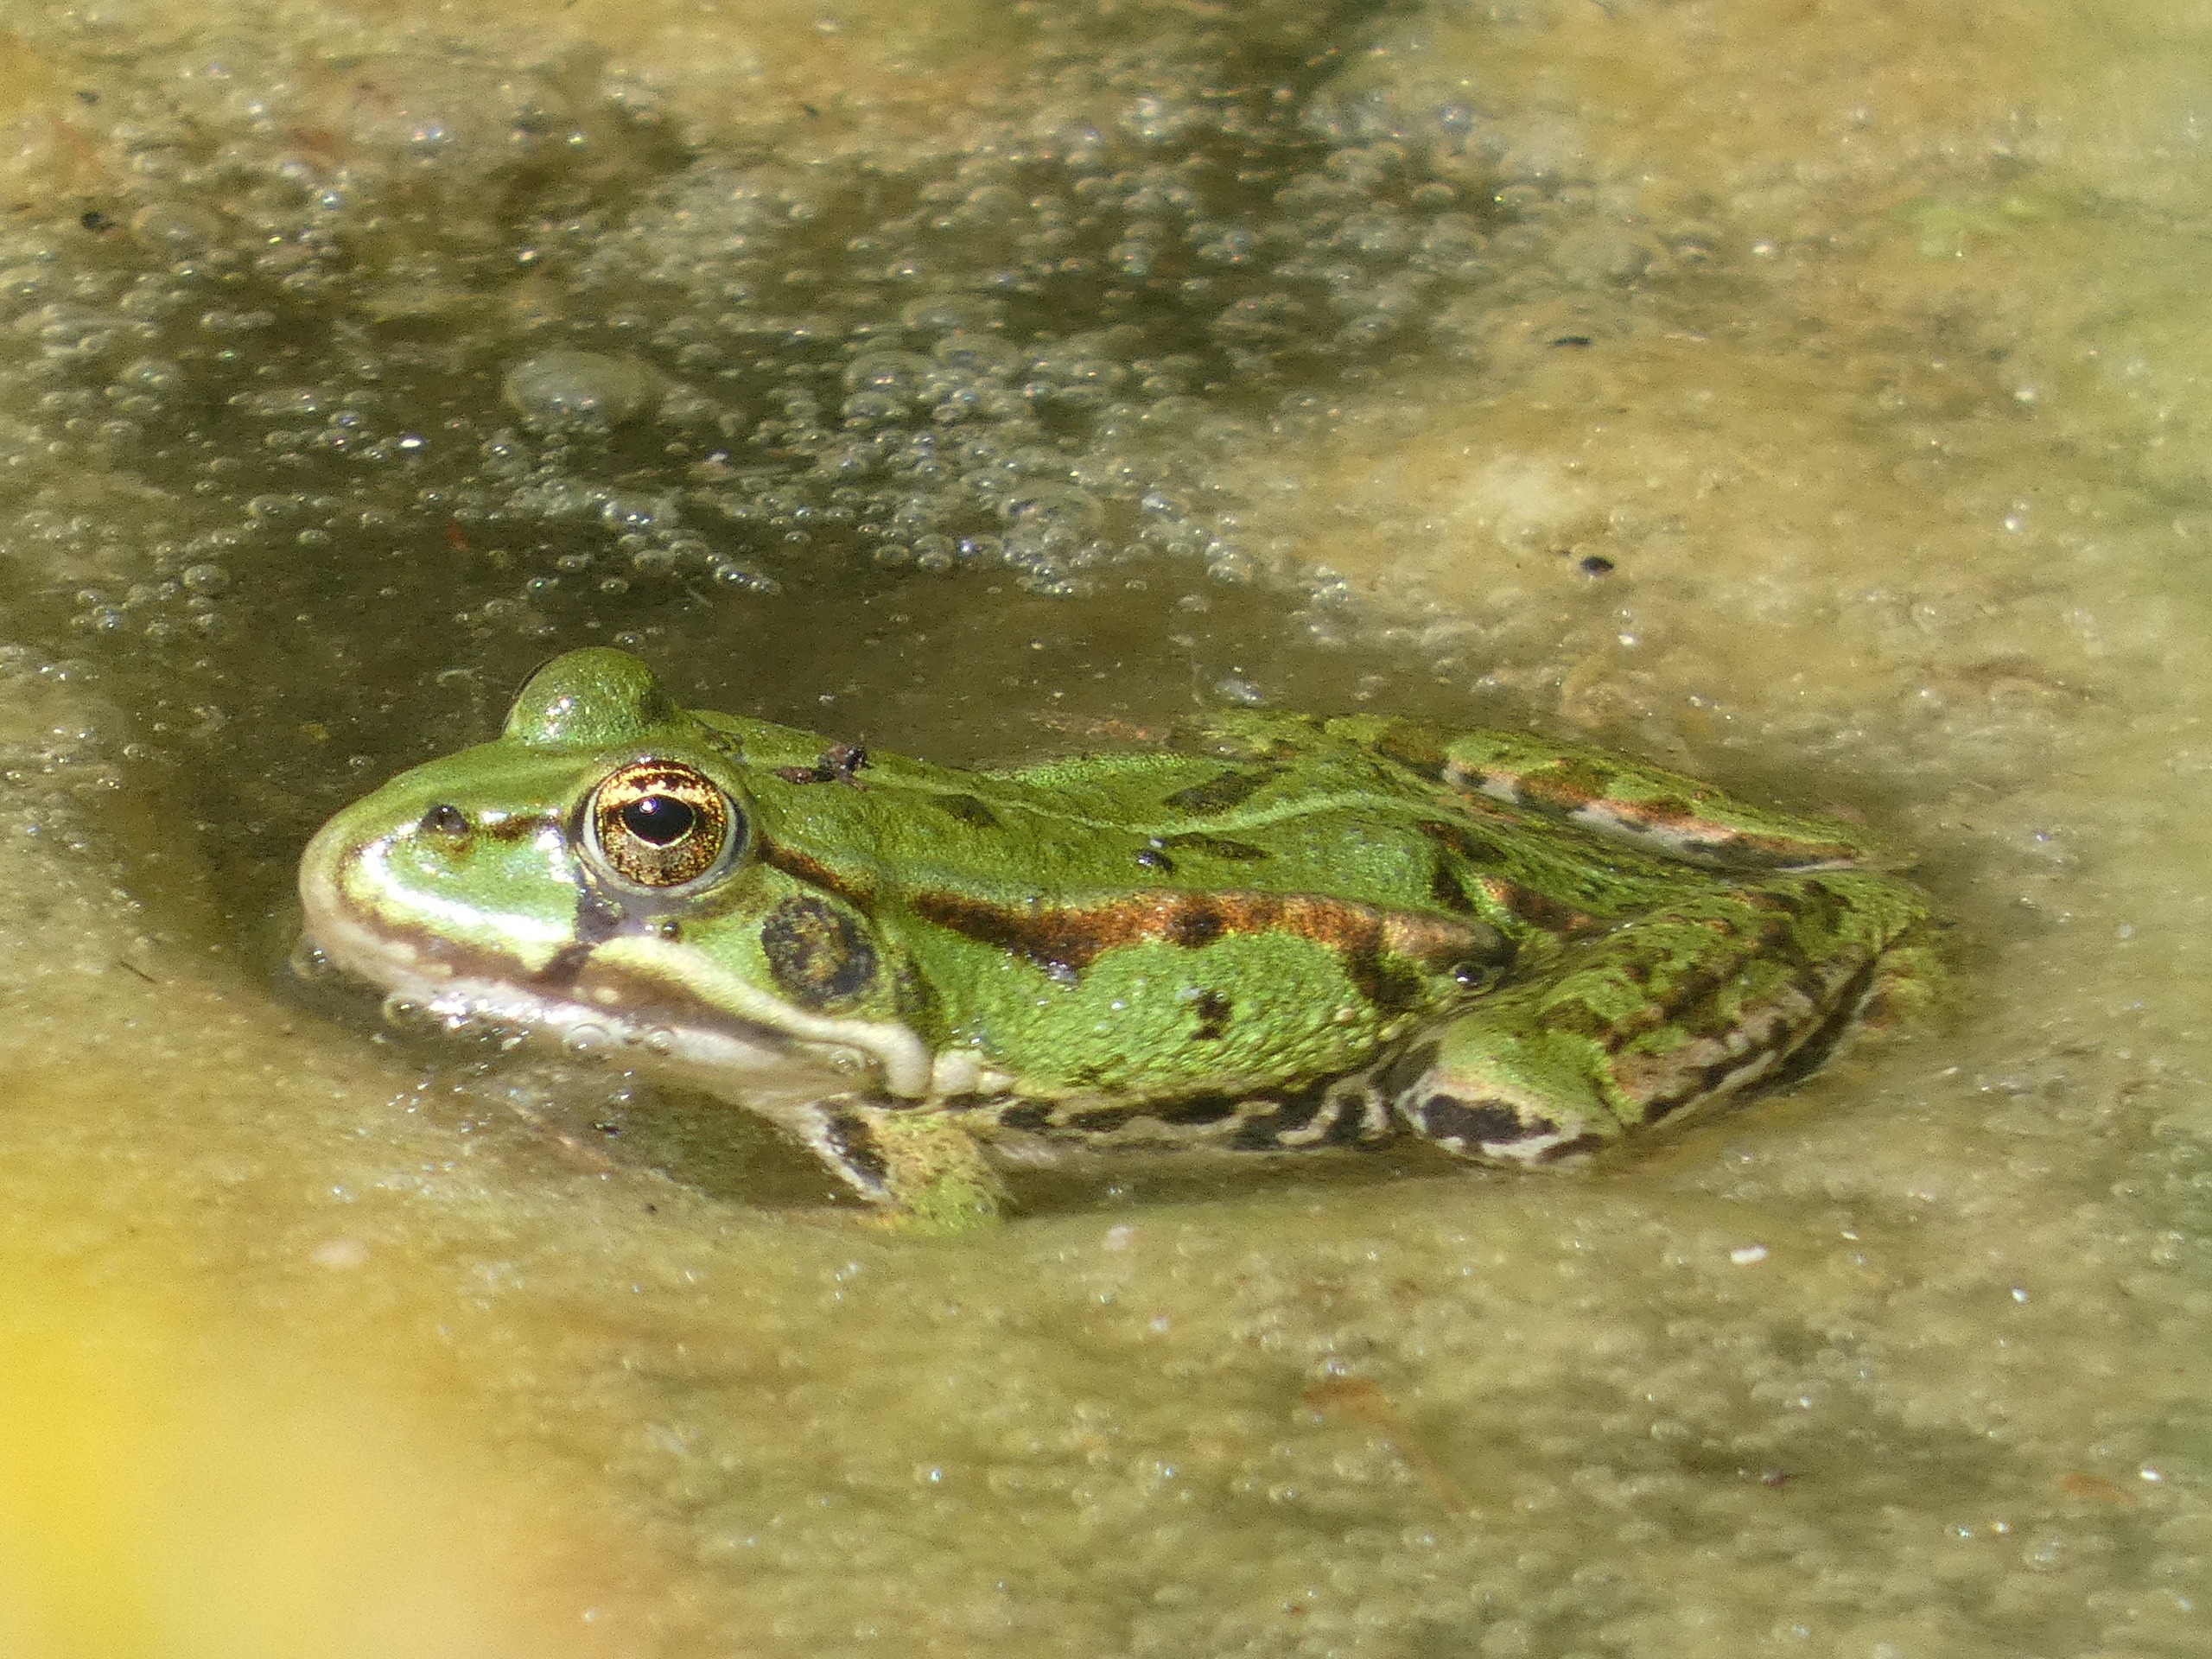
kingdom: Animalia
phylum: Chordata
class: Amphibia
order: Anura
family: Ranidae
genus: Pelophylax
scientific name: Pelophylax lessonae
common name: Grøn frø
